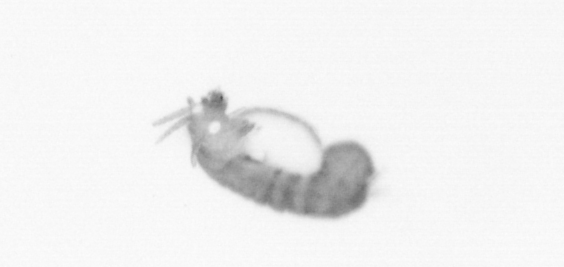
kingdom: Animalia
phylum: Annelida
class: Polychaeta
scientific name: Polychaeta
